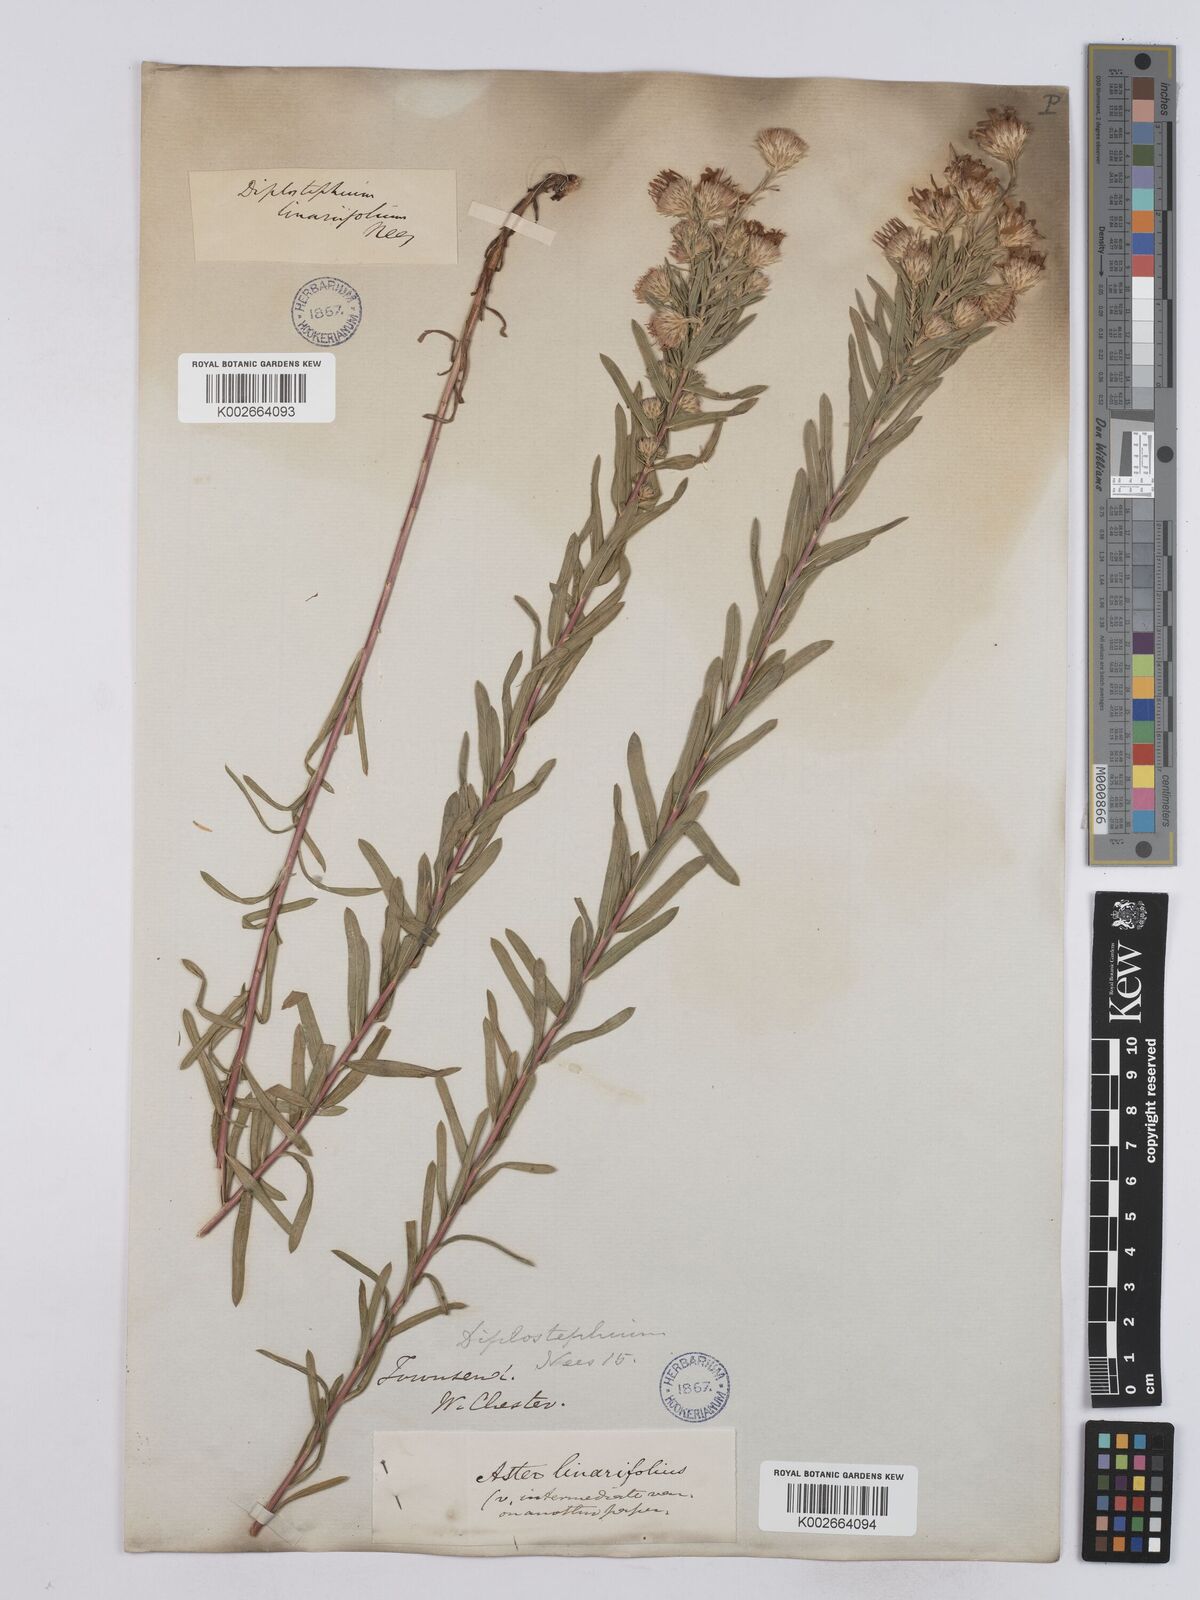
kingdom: Plantae
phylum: Tracheophyta
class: Magnoliopsida
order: Asterales
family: Asteraceae
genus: Ionactis
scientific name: Ionactis linariifolia
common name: Flax-leaf aster
